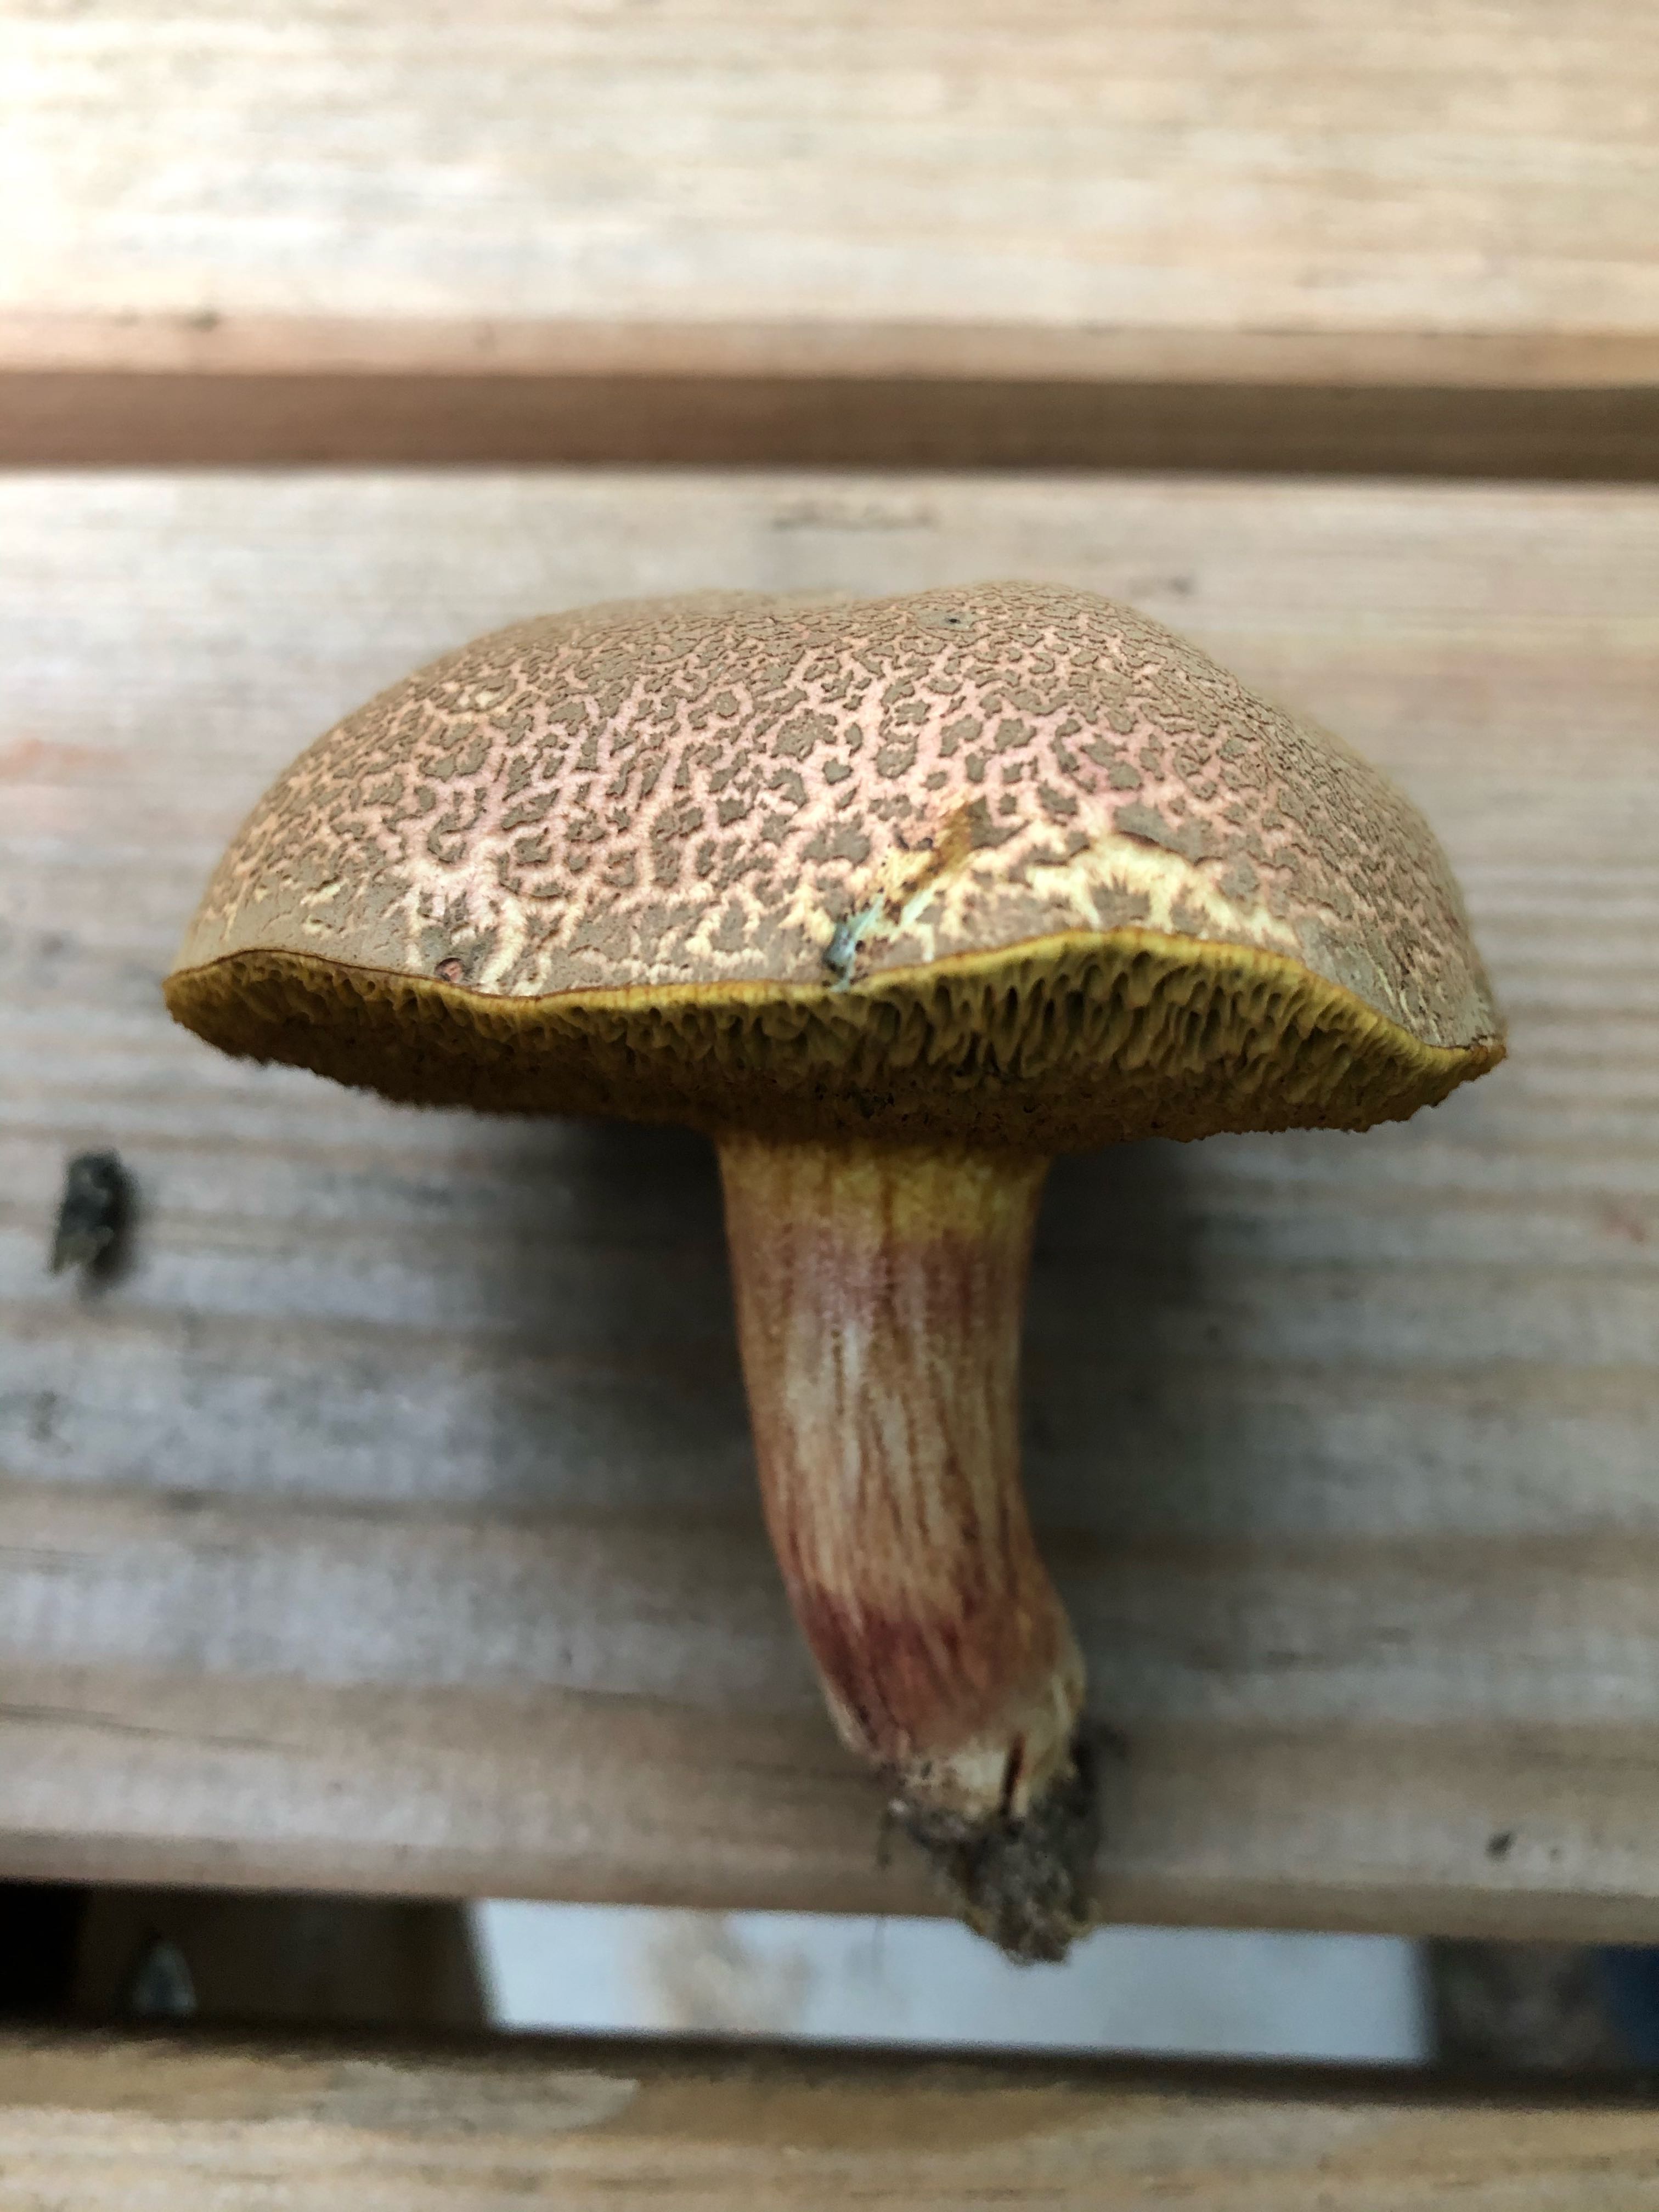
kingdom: Fungi
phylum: Basidiomycota
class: Agaricomycetes
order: Boletales
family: Boletaceae
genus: Xerocomellus
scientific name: Xerocomellus cisalpinus
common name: finsprukken rørhat
